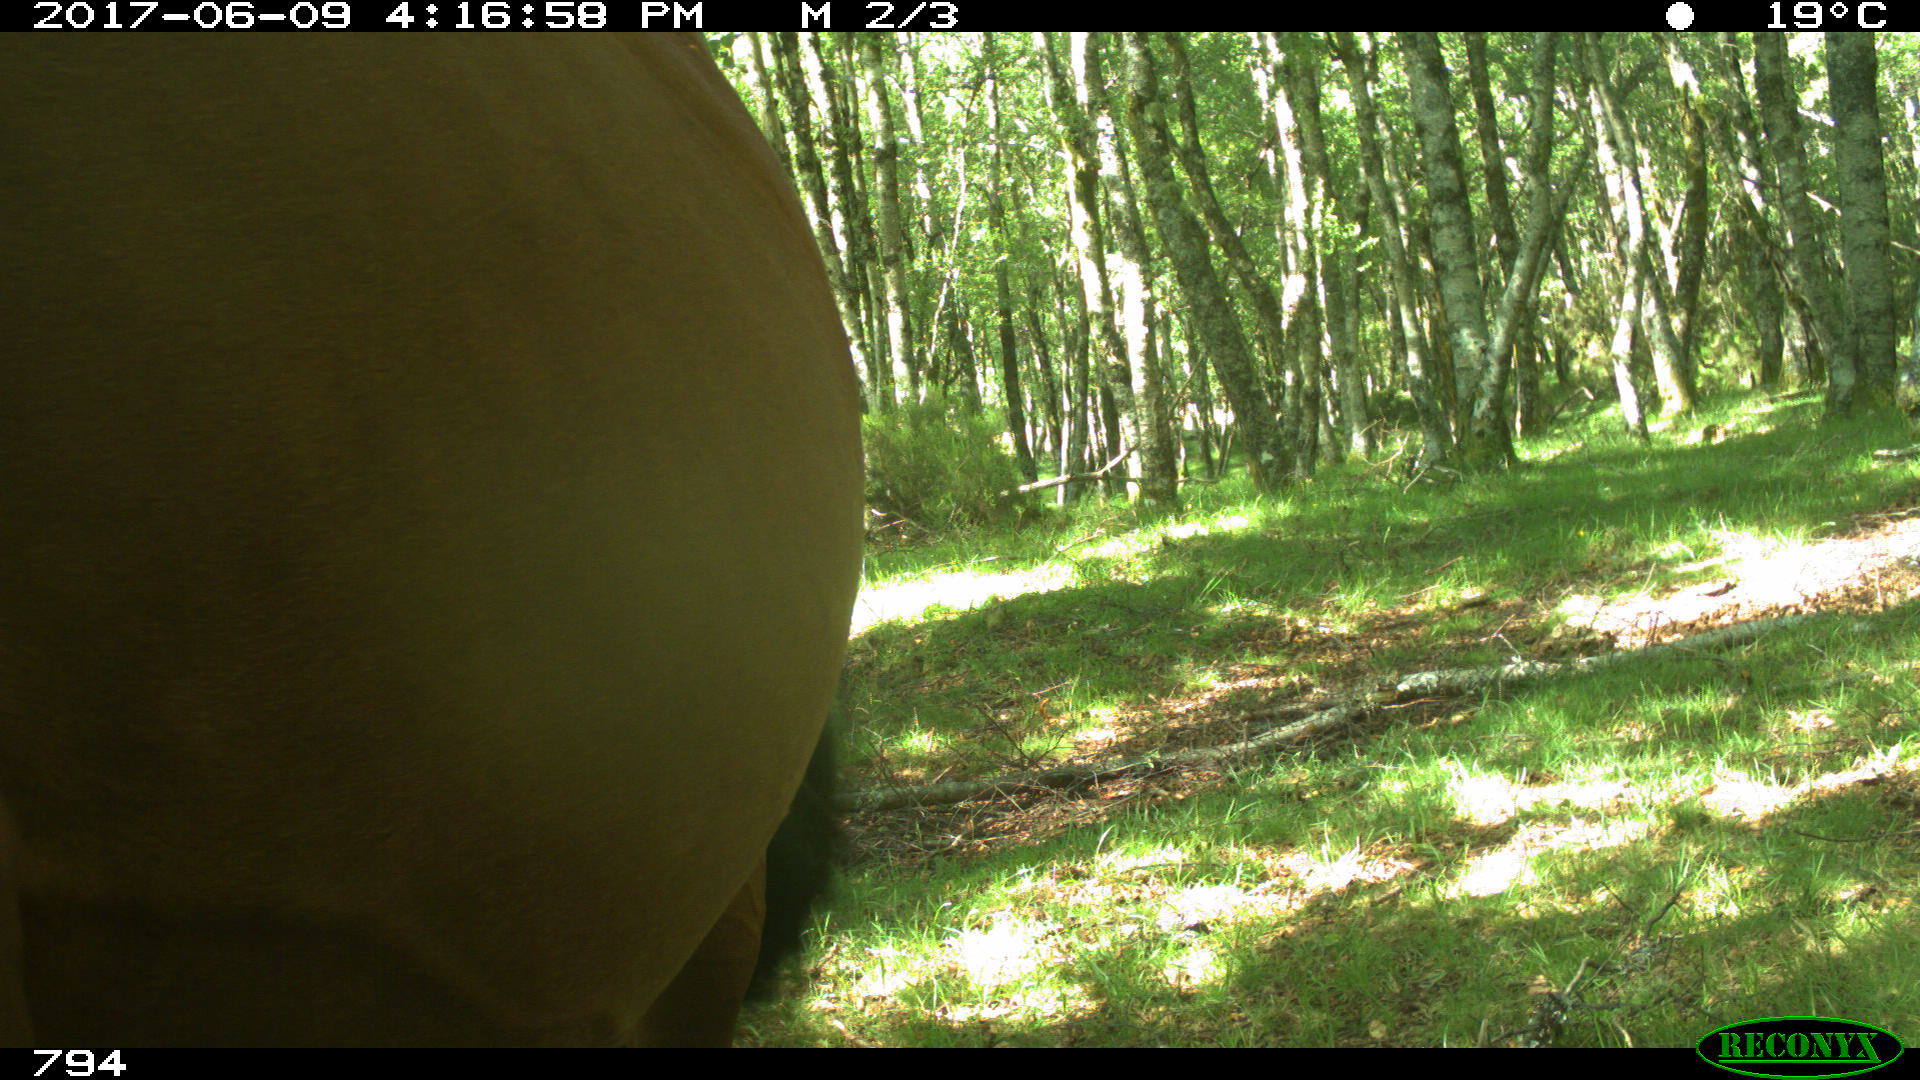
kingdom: Animalia
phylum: Chordata
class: Mammalia
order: Perissodactyla
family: Equidae
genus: Equus
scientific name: Equus caballus
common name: Horse
